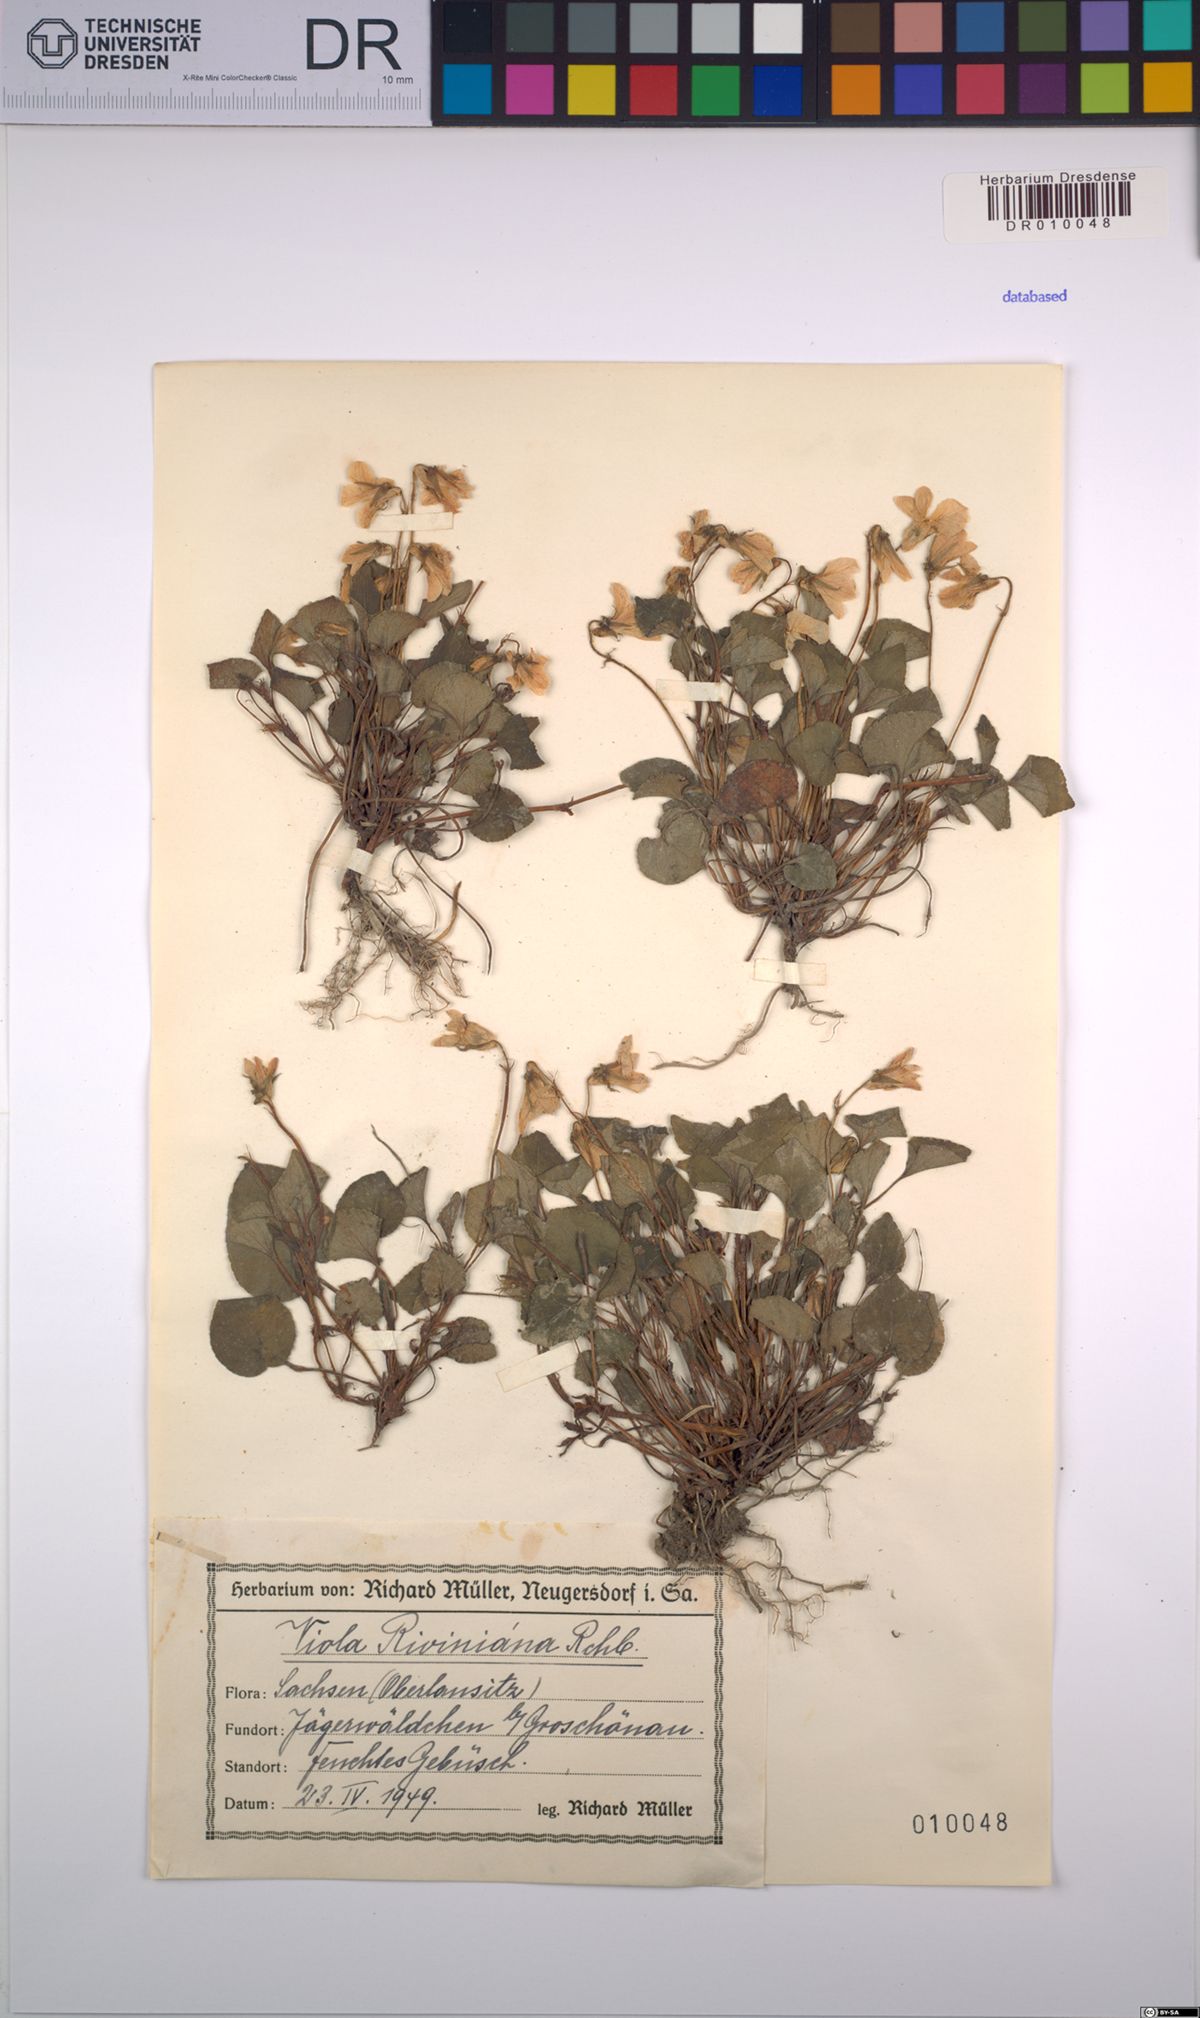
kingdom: Plantae
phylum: Tracheophyta
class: Magnoliopsida
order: Malpighiales
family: Violaceae
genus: Viola
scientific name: Viola riviniana
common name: Common dog-violet
